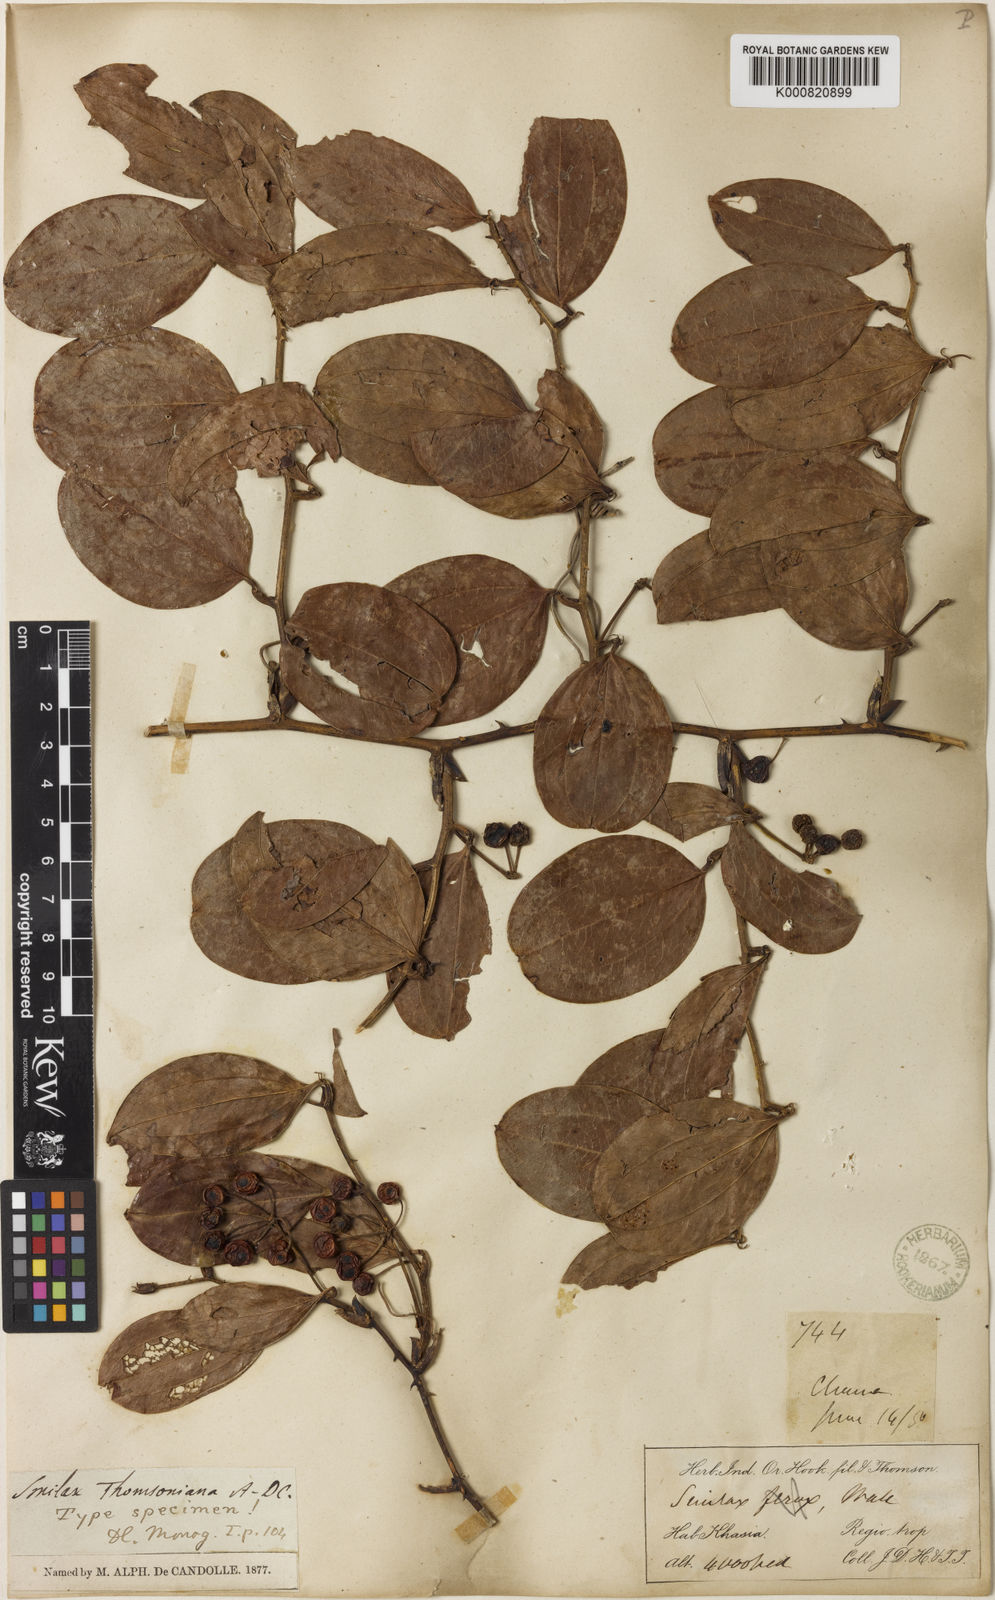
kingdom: Plantae
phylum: Tracheophyta
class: Liliopsida
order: Liliales
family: Smilacaceae
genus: Smilax
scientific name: Smilax ferox
